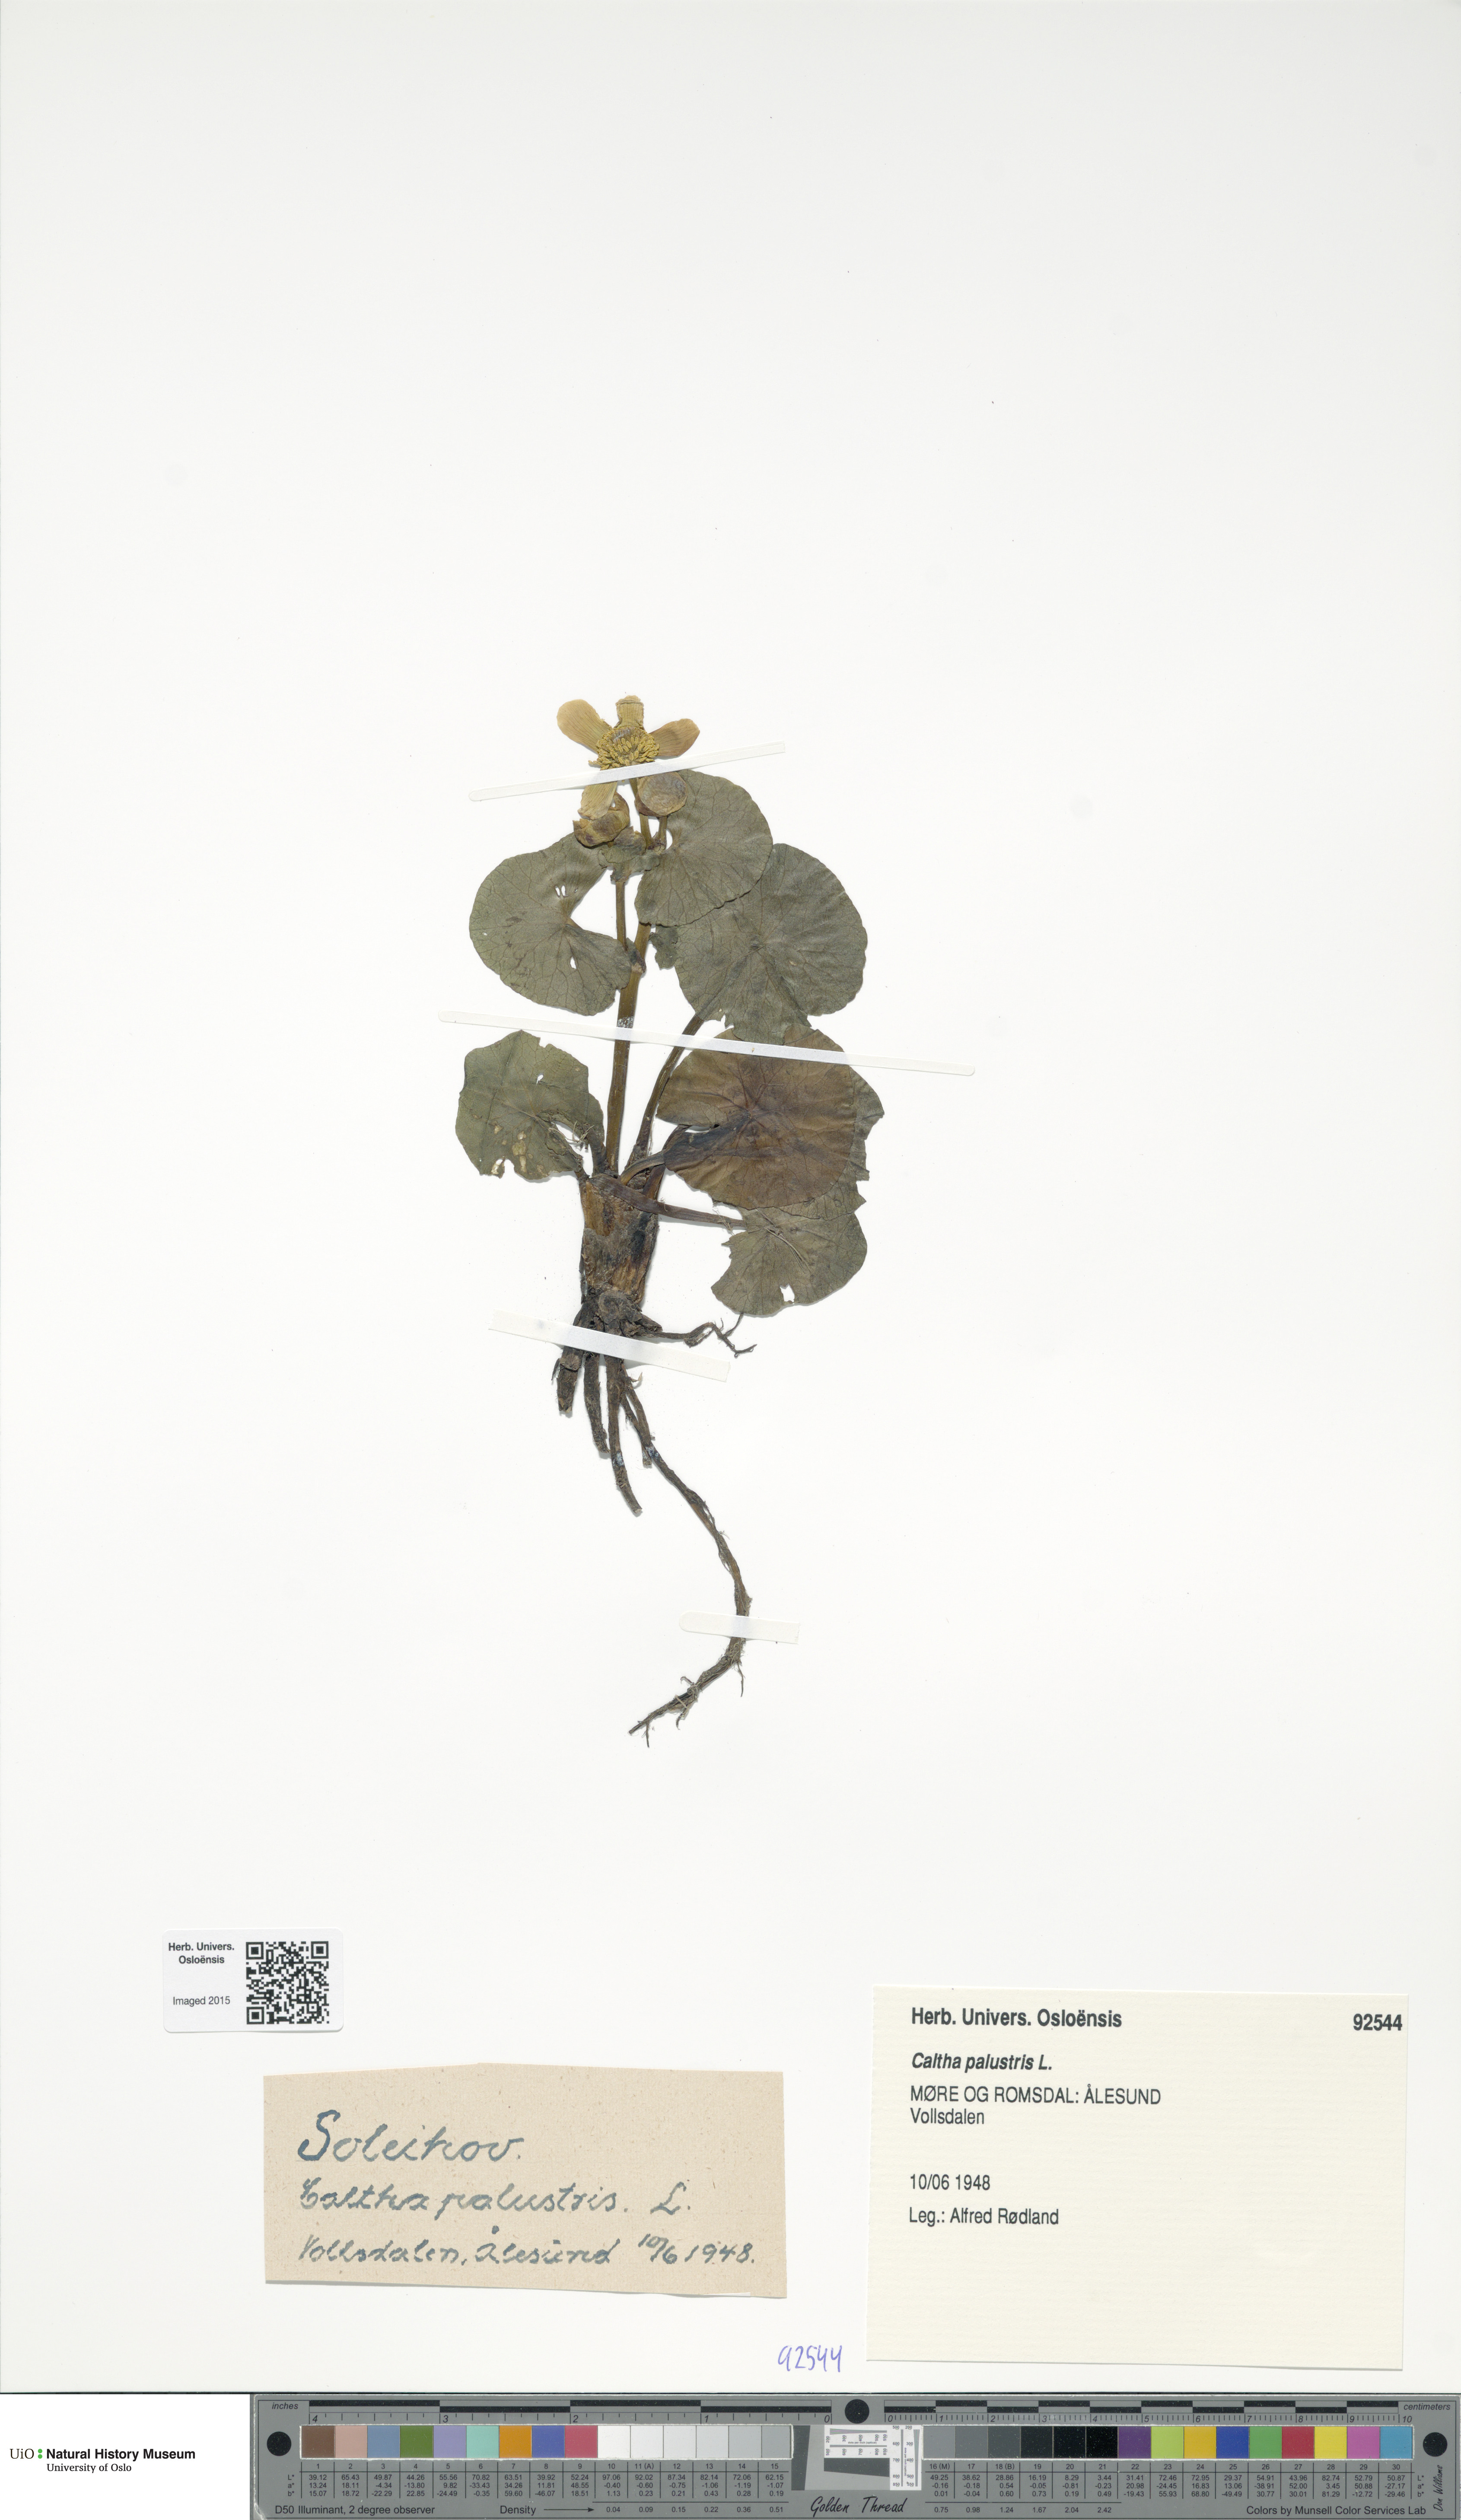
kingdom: Plantae
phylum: Tracheophyta
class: Magnoliopsida
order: Ranunculales
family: Ranunculaceae
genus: Caltha
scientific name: Caltha palustris
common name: Marsh marigold
